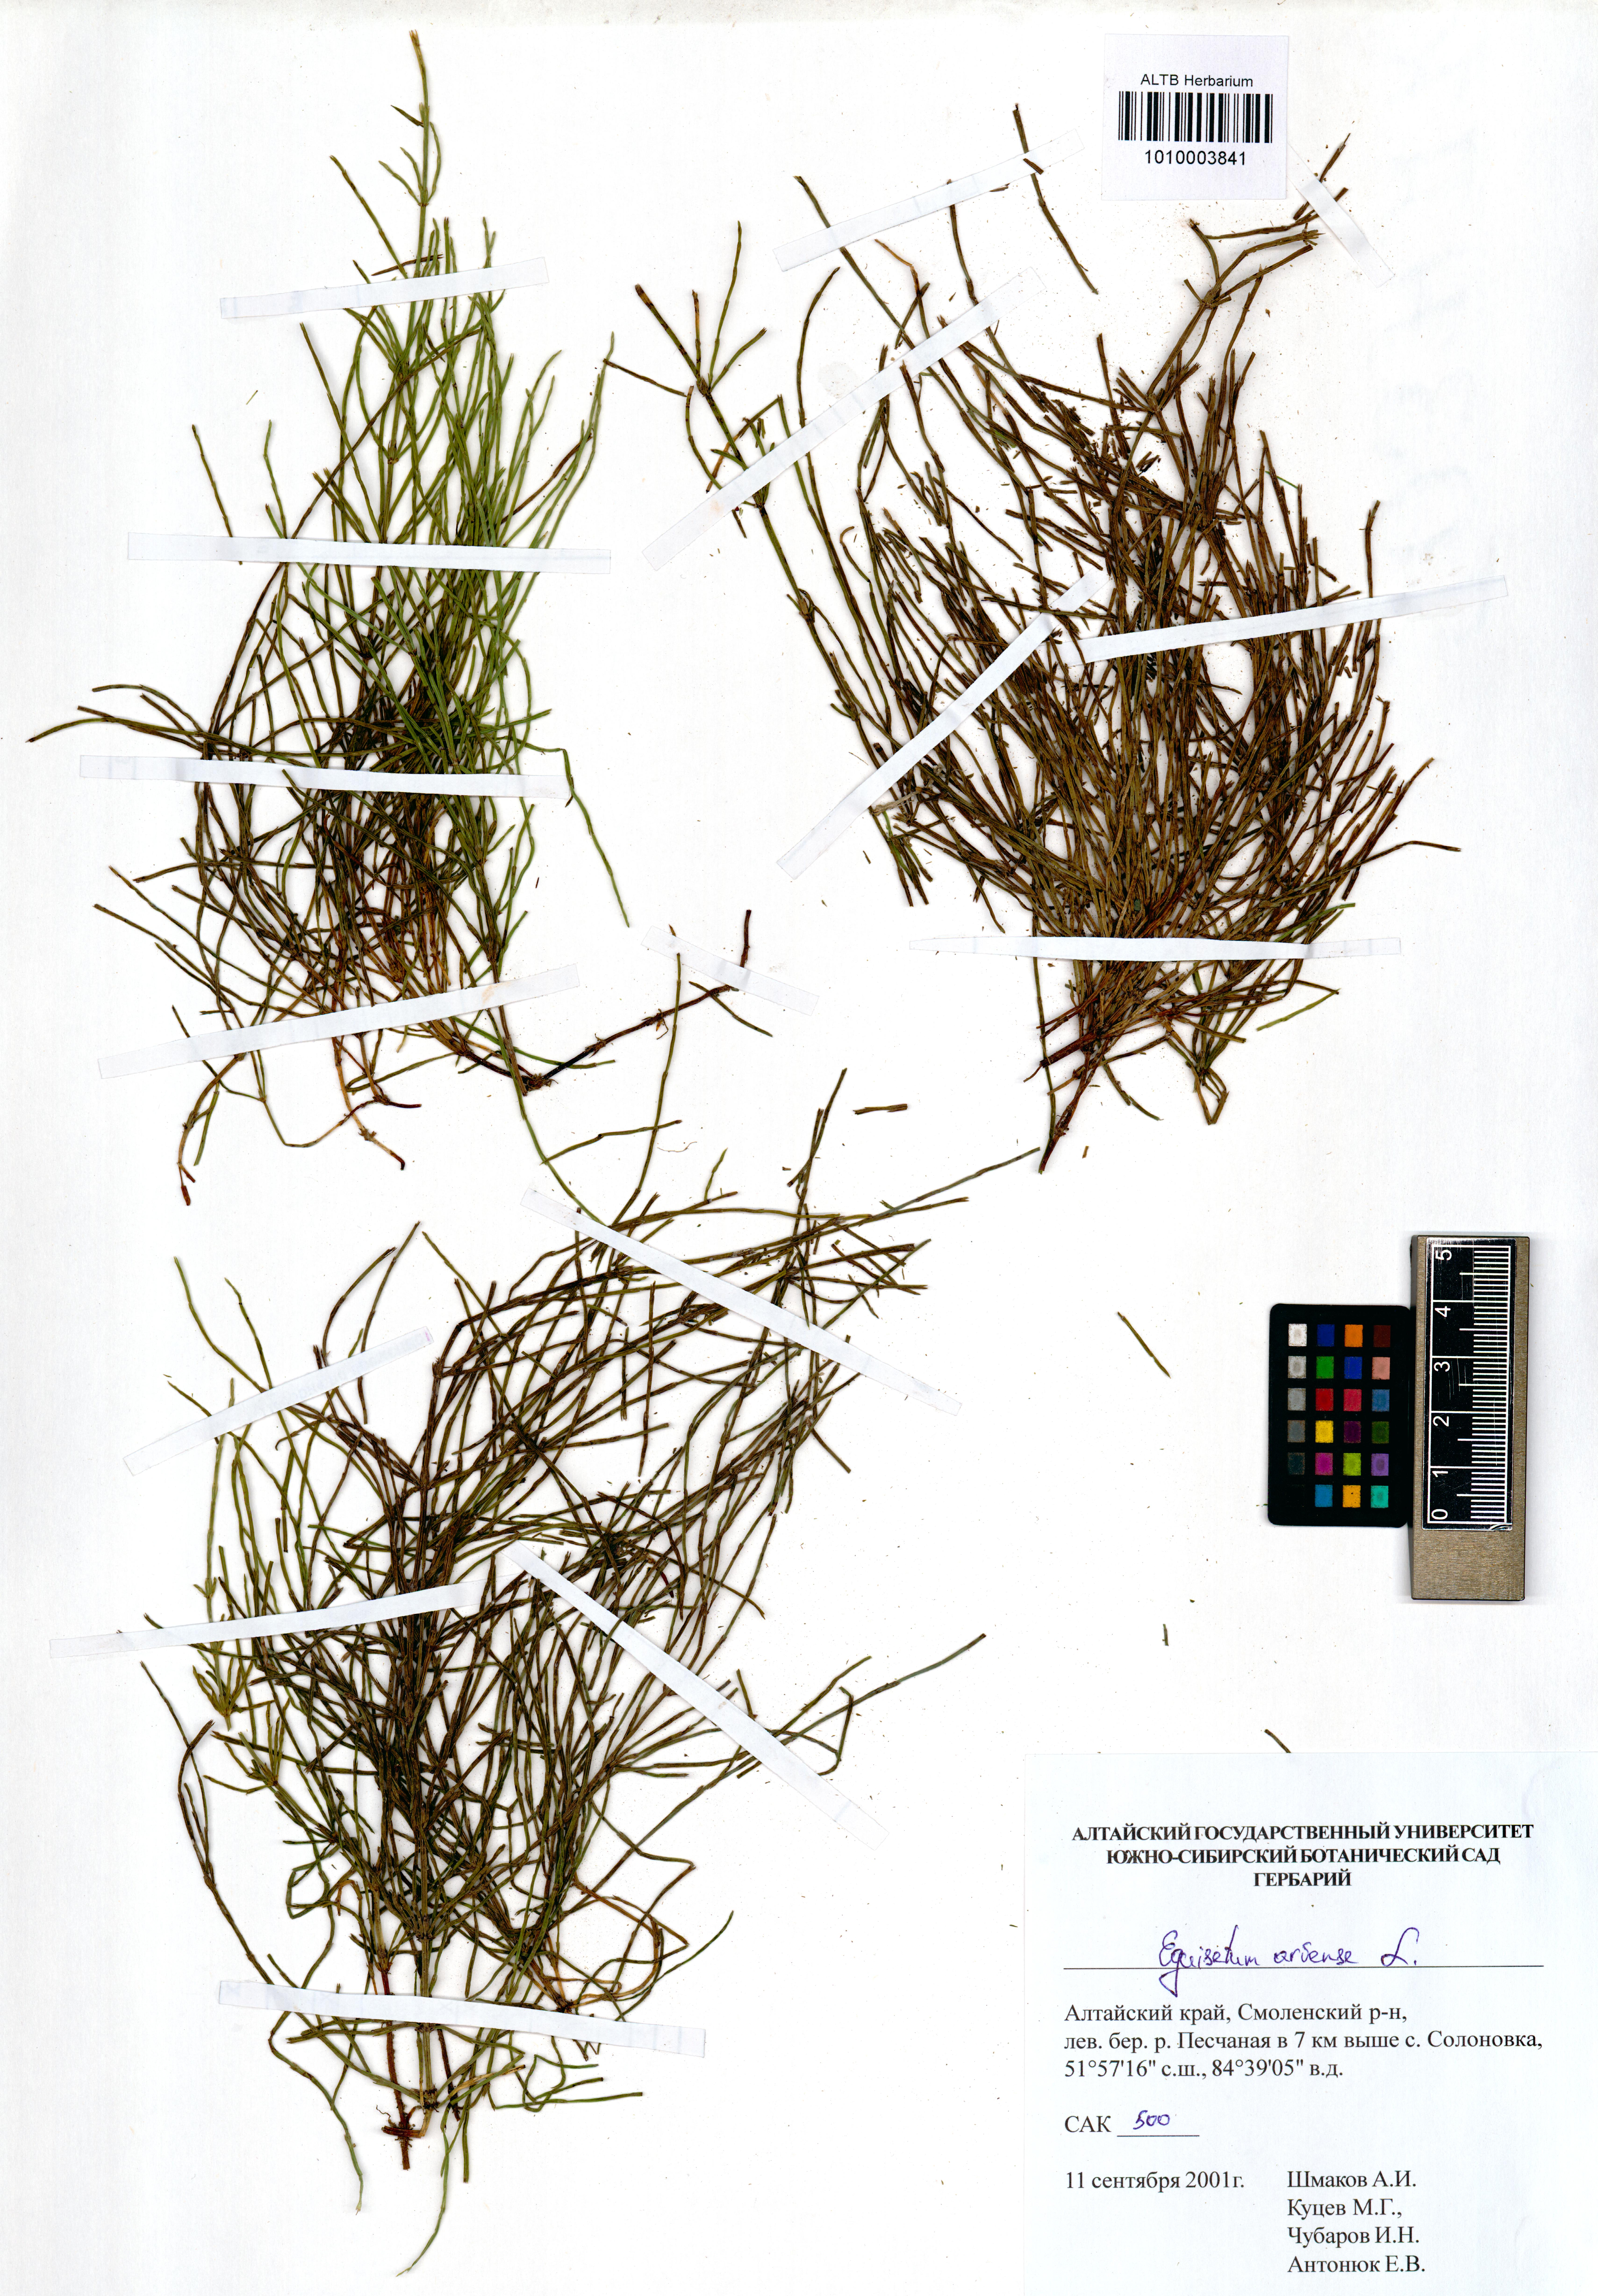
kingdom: Plantae
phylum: Tracheophyta
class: Polypodiopsida
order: Equisetales
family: Equisetaceae
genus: Equisetum
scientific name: Equisetum arvense
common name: Field horsetail
